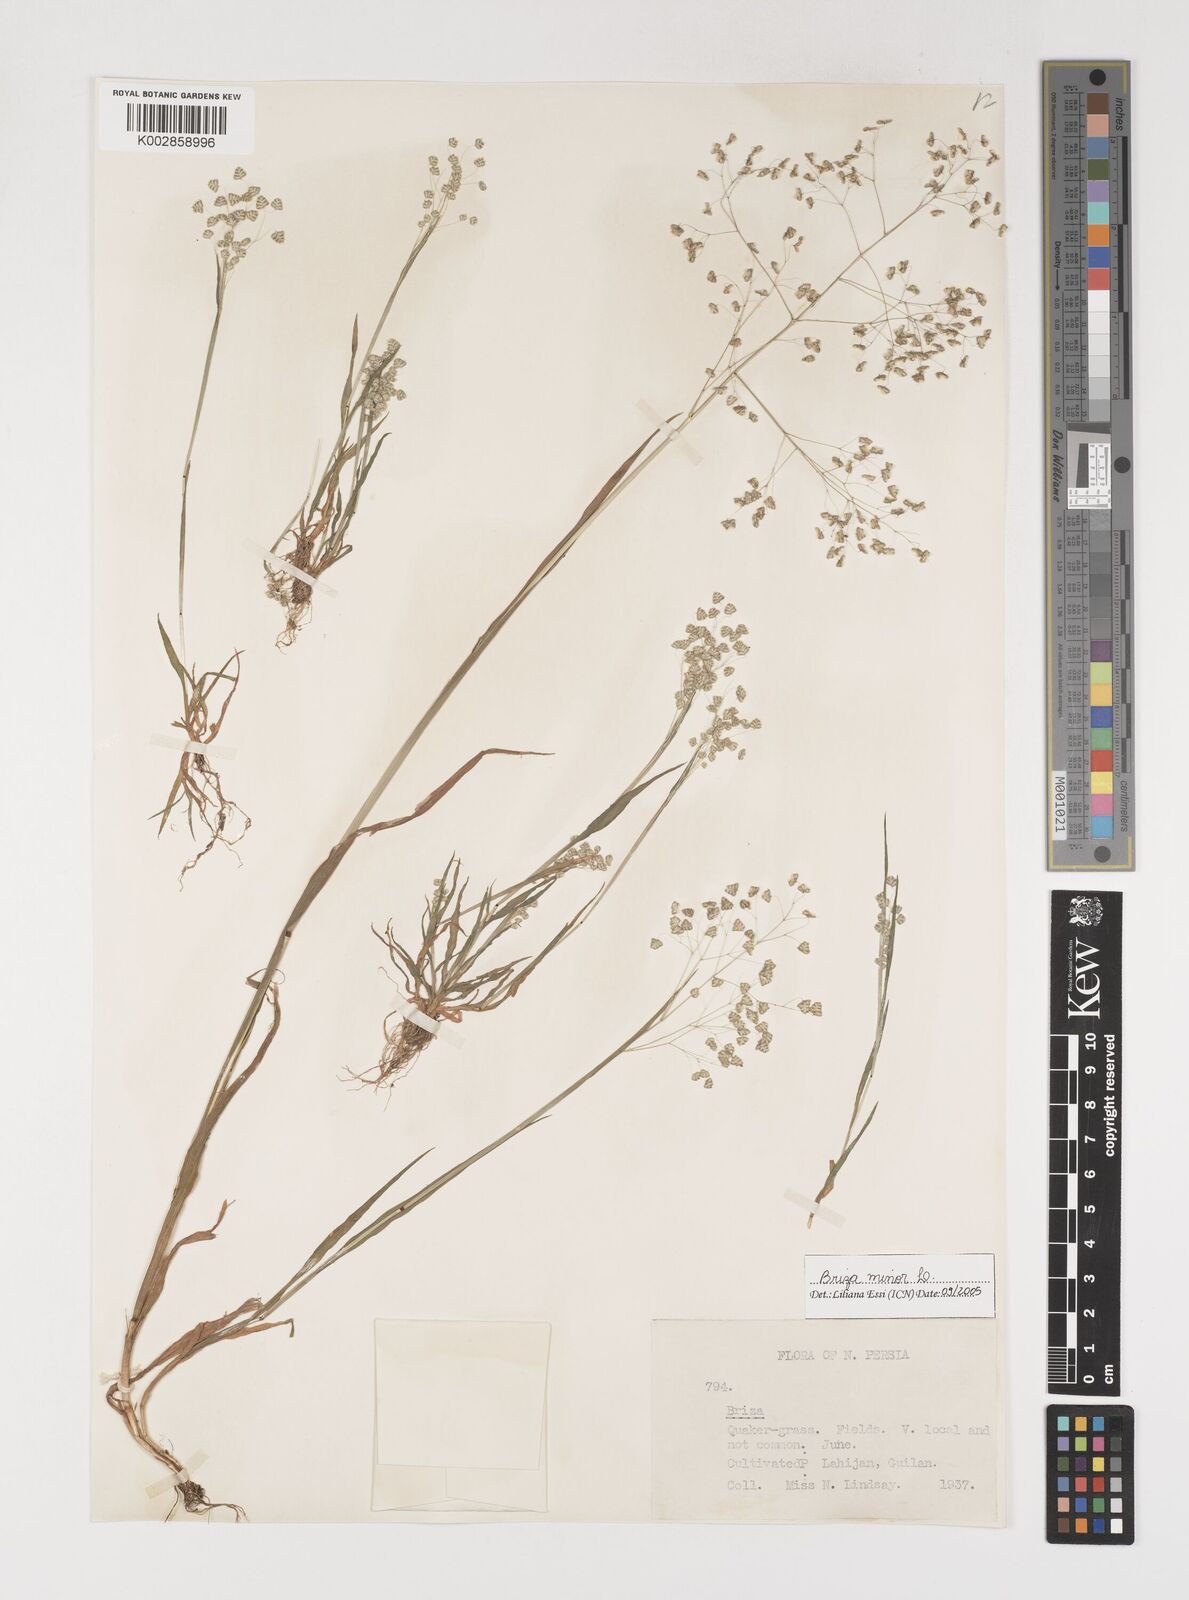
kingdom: Plantae
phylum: Tracheophyta
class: Liliopsida
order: Poales
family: Poaceae
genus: Briza
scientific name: Briza minor
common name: Lesser quaking-grass
